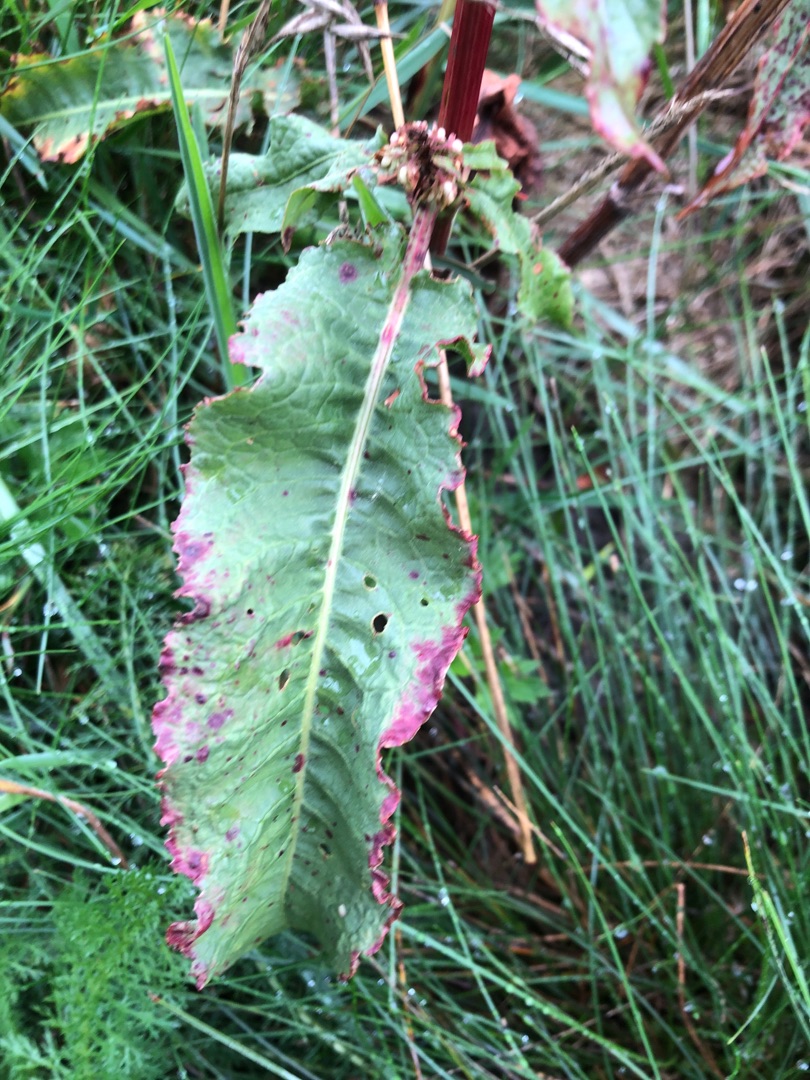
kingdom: Plantae
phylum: Tracheophyta
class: Magnoliopsida
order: Caryophyllales
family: Polygonaceae
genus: Rumex
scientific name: Rumex crispus
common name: Kruset skræppe
